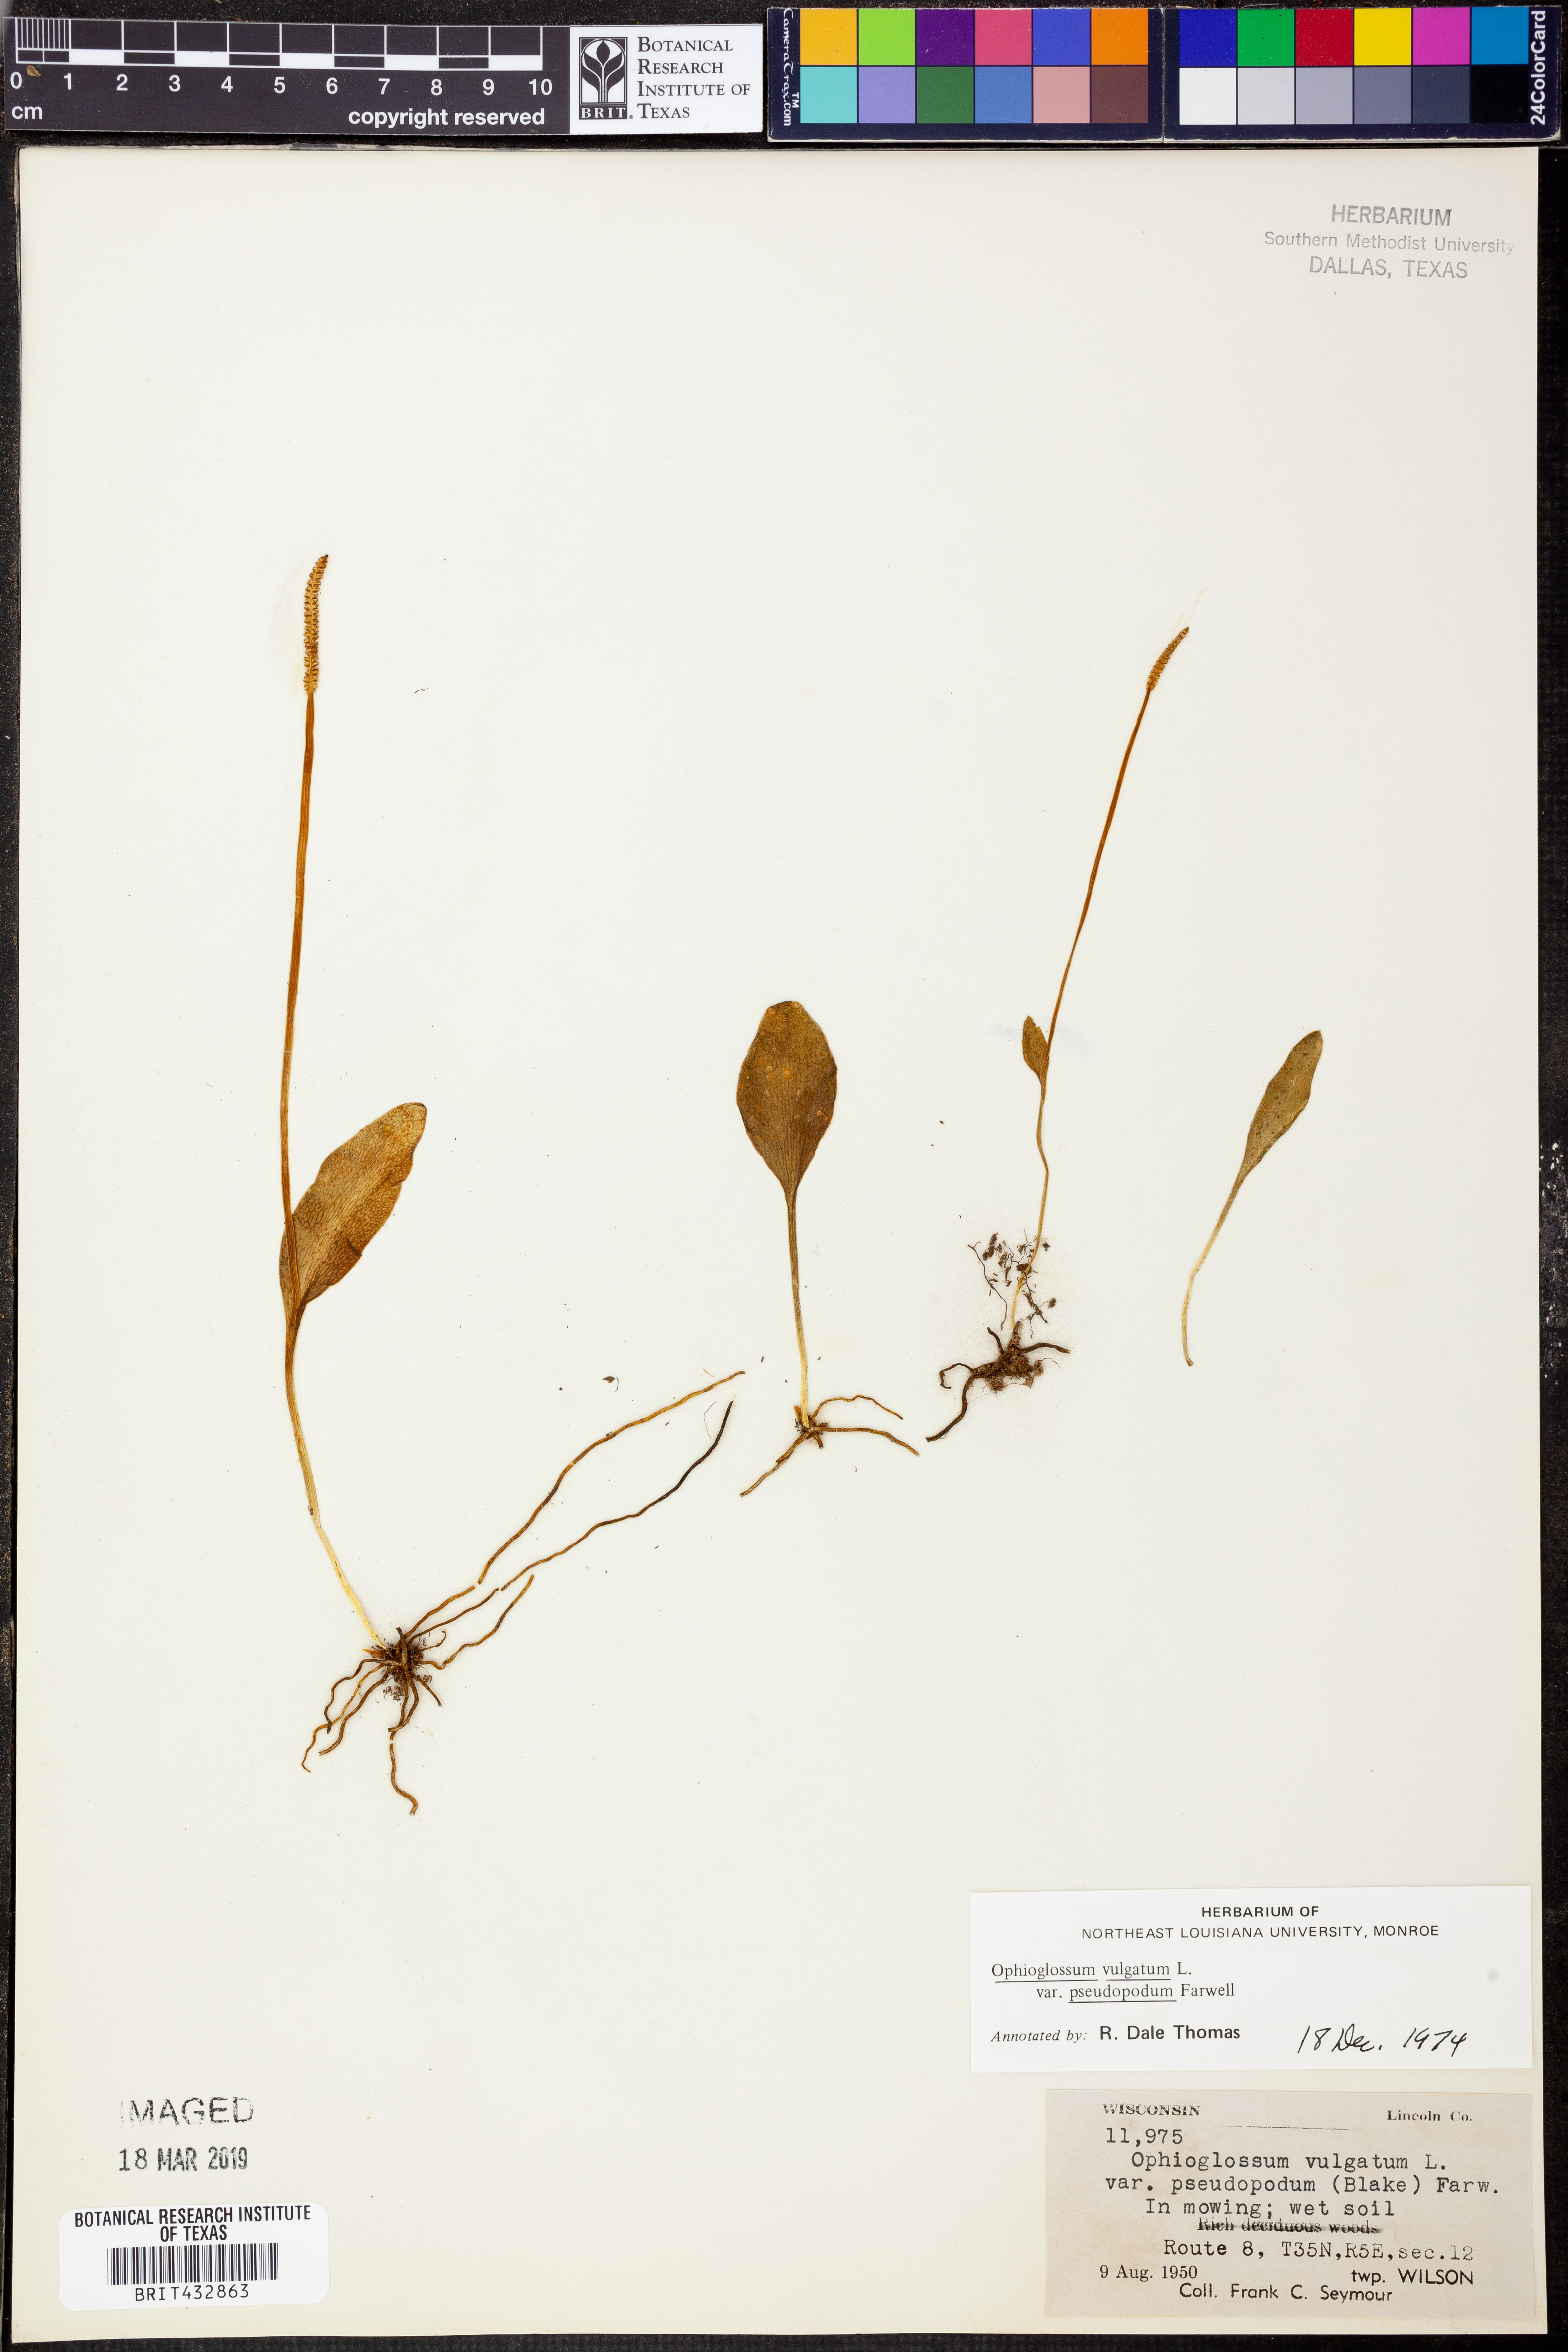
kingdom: Plantae
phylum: Tracheophyta
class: Polypodiopsida
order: Ophioglossales
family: Ophioglossaceae
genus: Ophioglossum
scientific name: Ophioglossum pusillum
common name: Northern adder's-tongue
